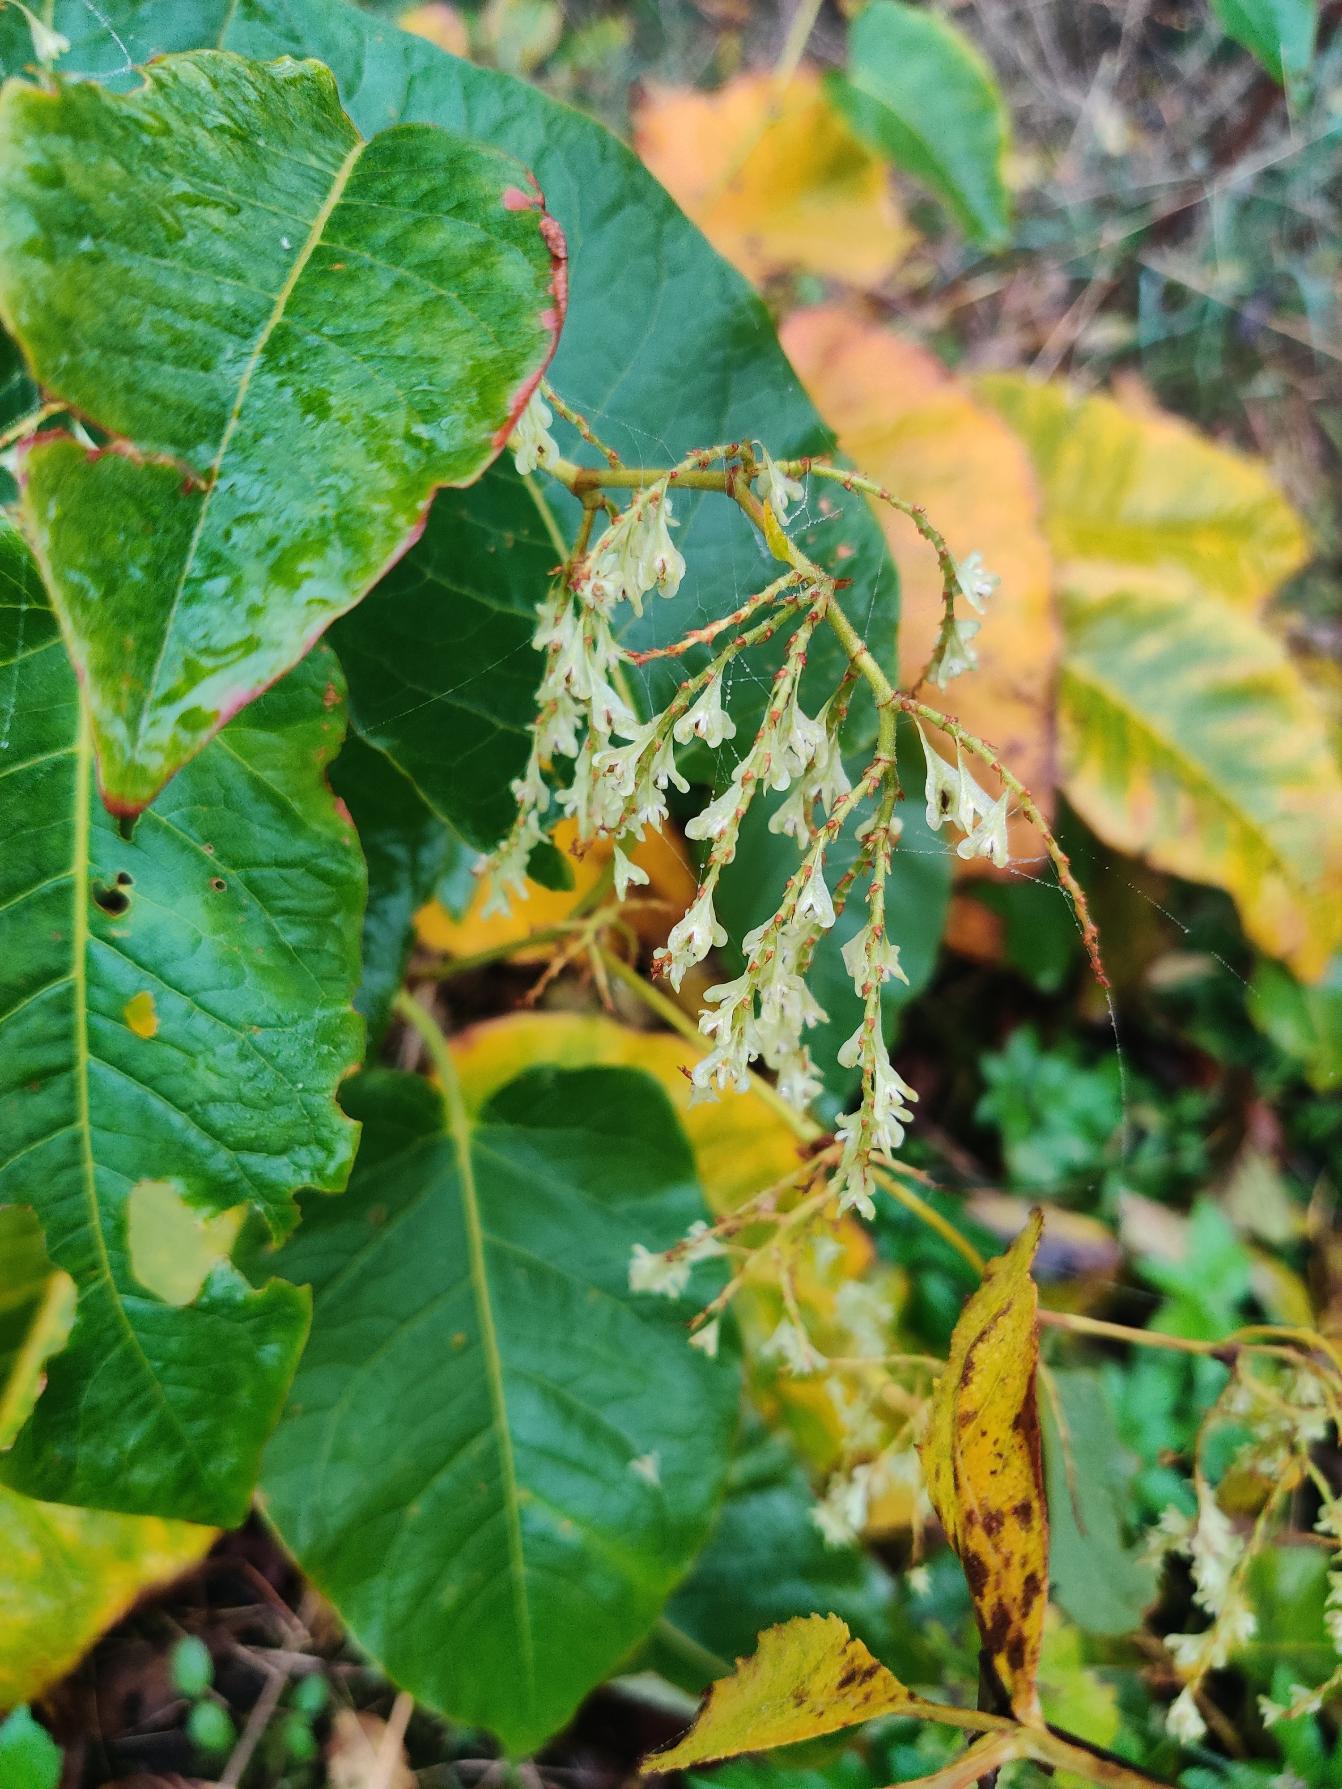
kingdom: Plantae
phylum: Tracheophyta
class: Magnoliopsida
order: Caryophyllales
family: Polygonaceae
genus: Reynoutria
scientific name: Reynoutria sachalinensis
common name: Kæmpe-pileurt
